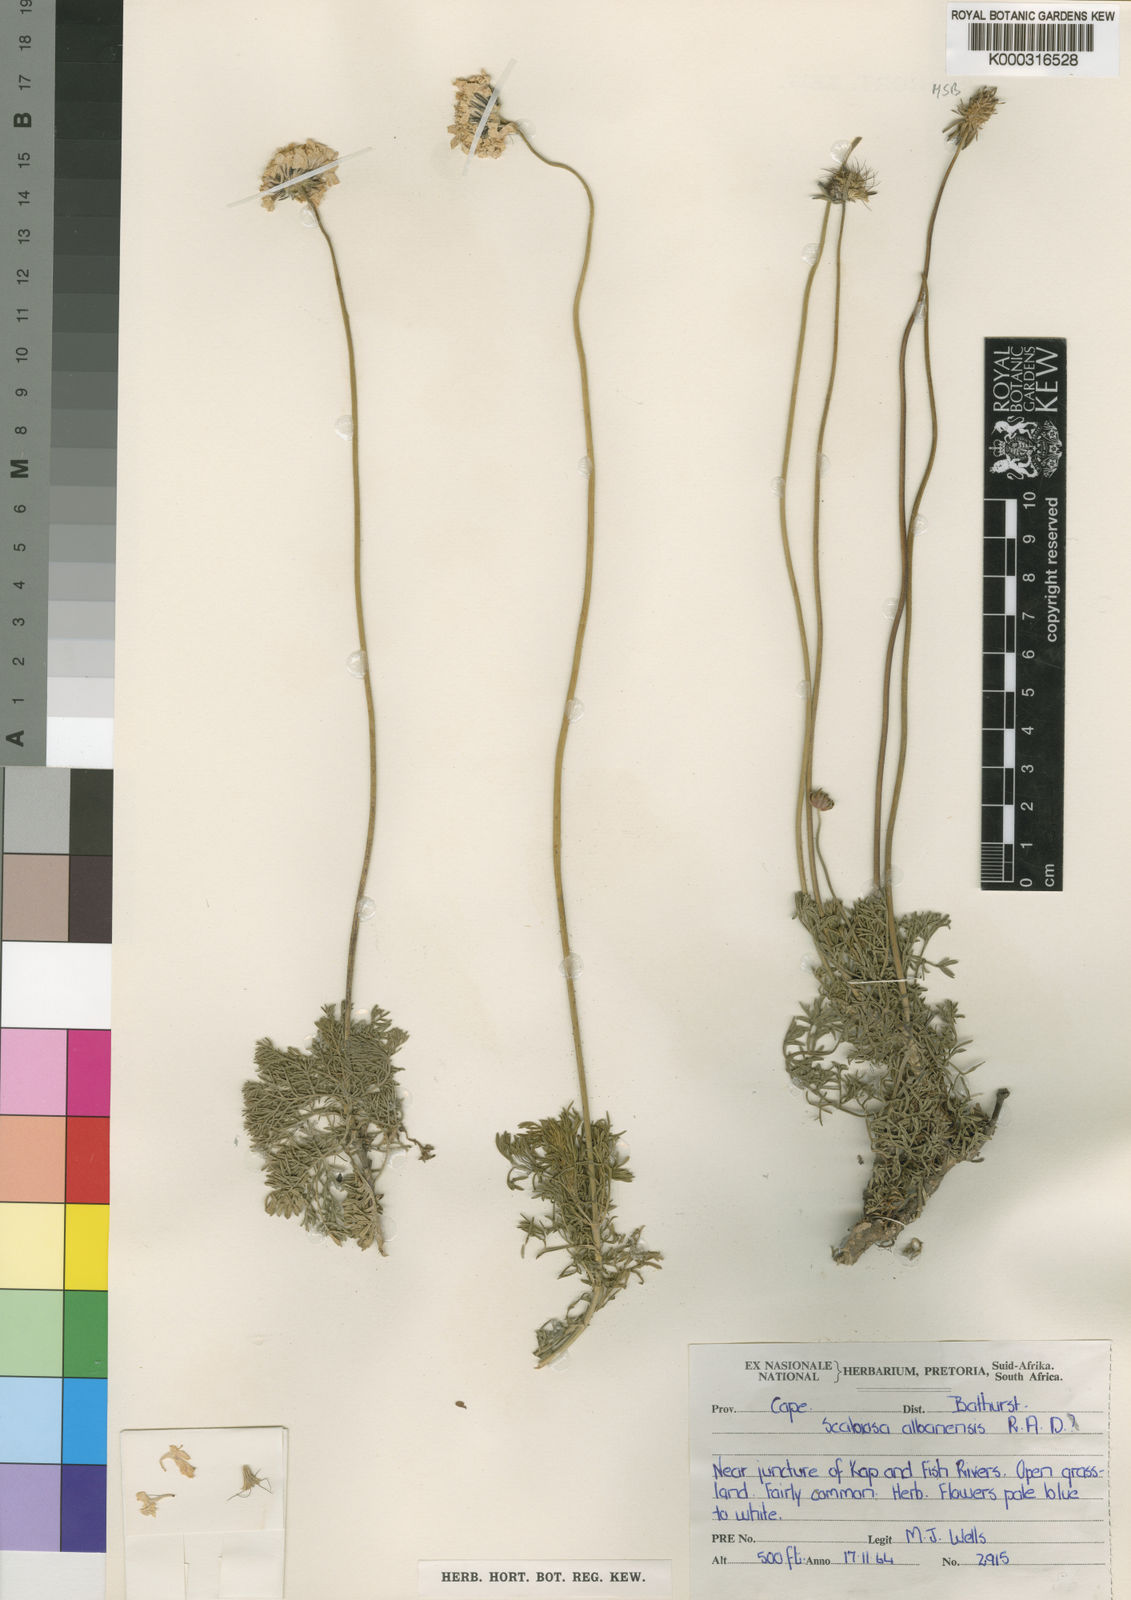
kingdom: Plantae
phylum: Tracheophyta
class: Magnoliopsida
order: Dipsacales
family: Caprifoliaceae
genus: Scabiosa
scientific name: Scabiosa albanensis
